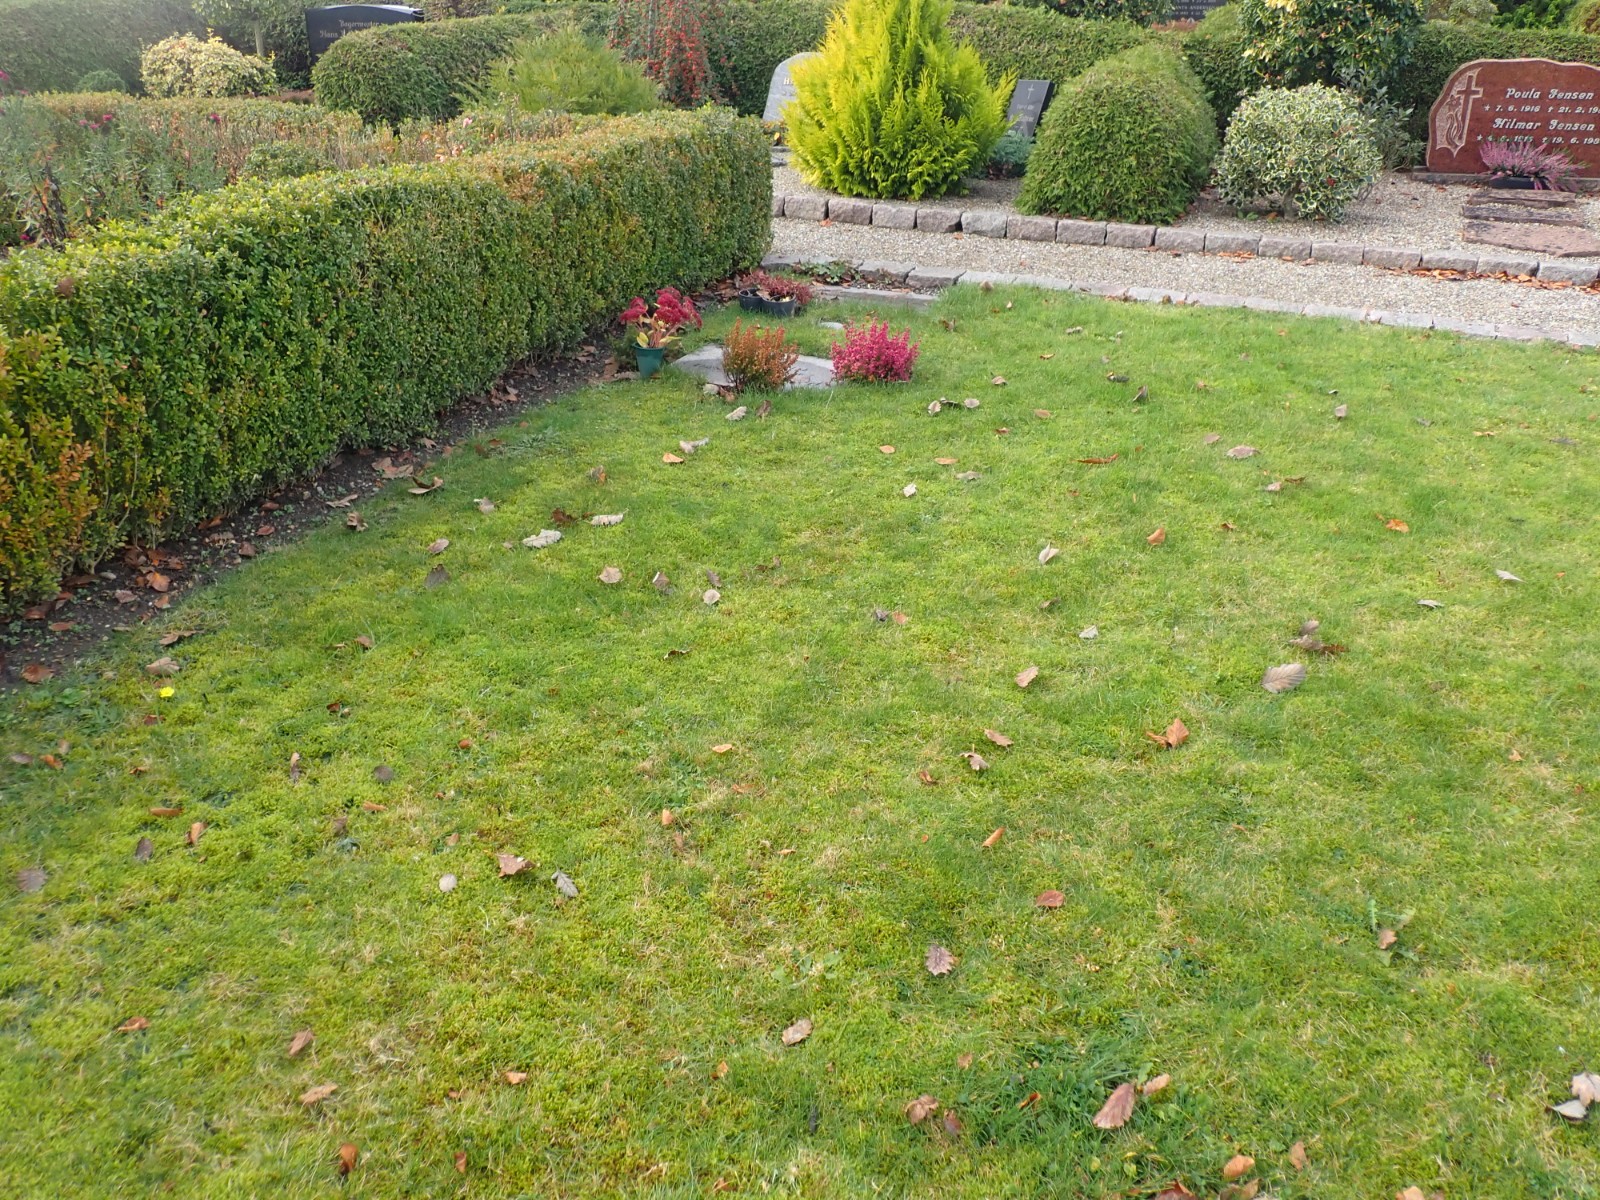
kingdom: Fungi
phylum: Ascomycota
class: Geoglossomycetes
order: Geoglossales
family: Geoglossaceae
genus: Geoglossum
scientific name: Geoglossum
